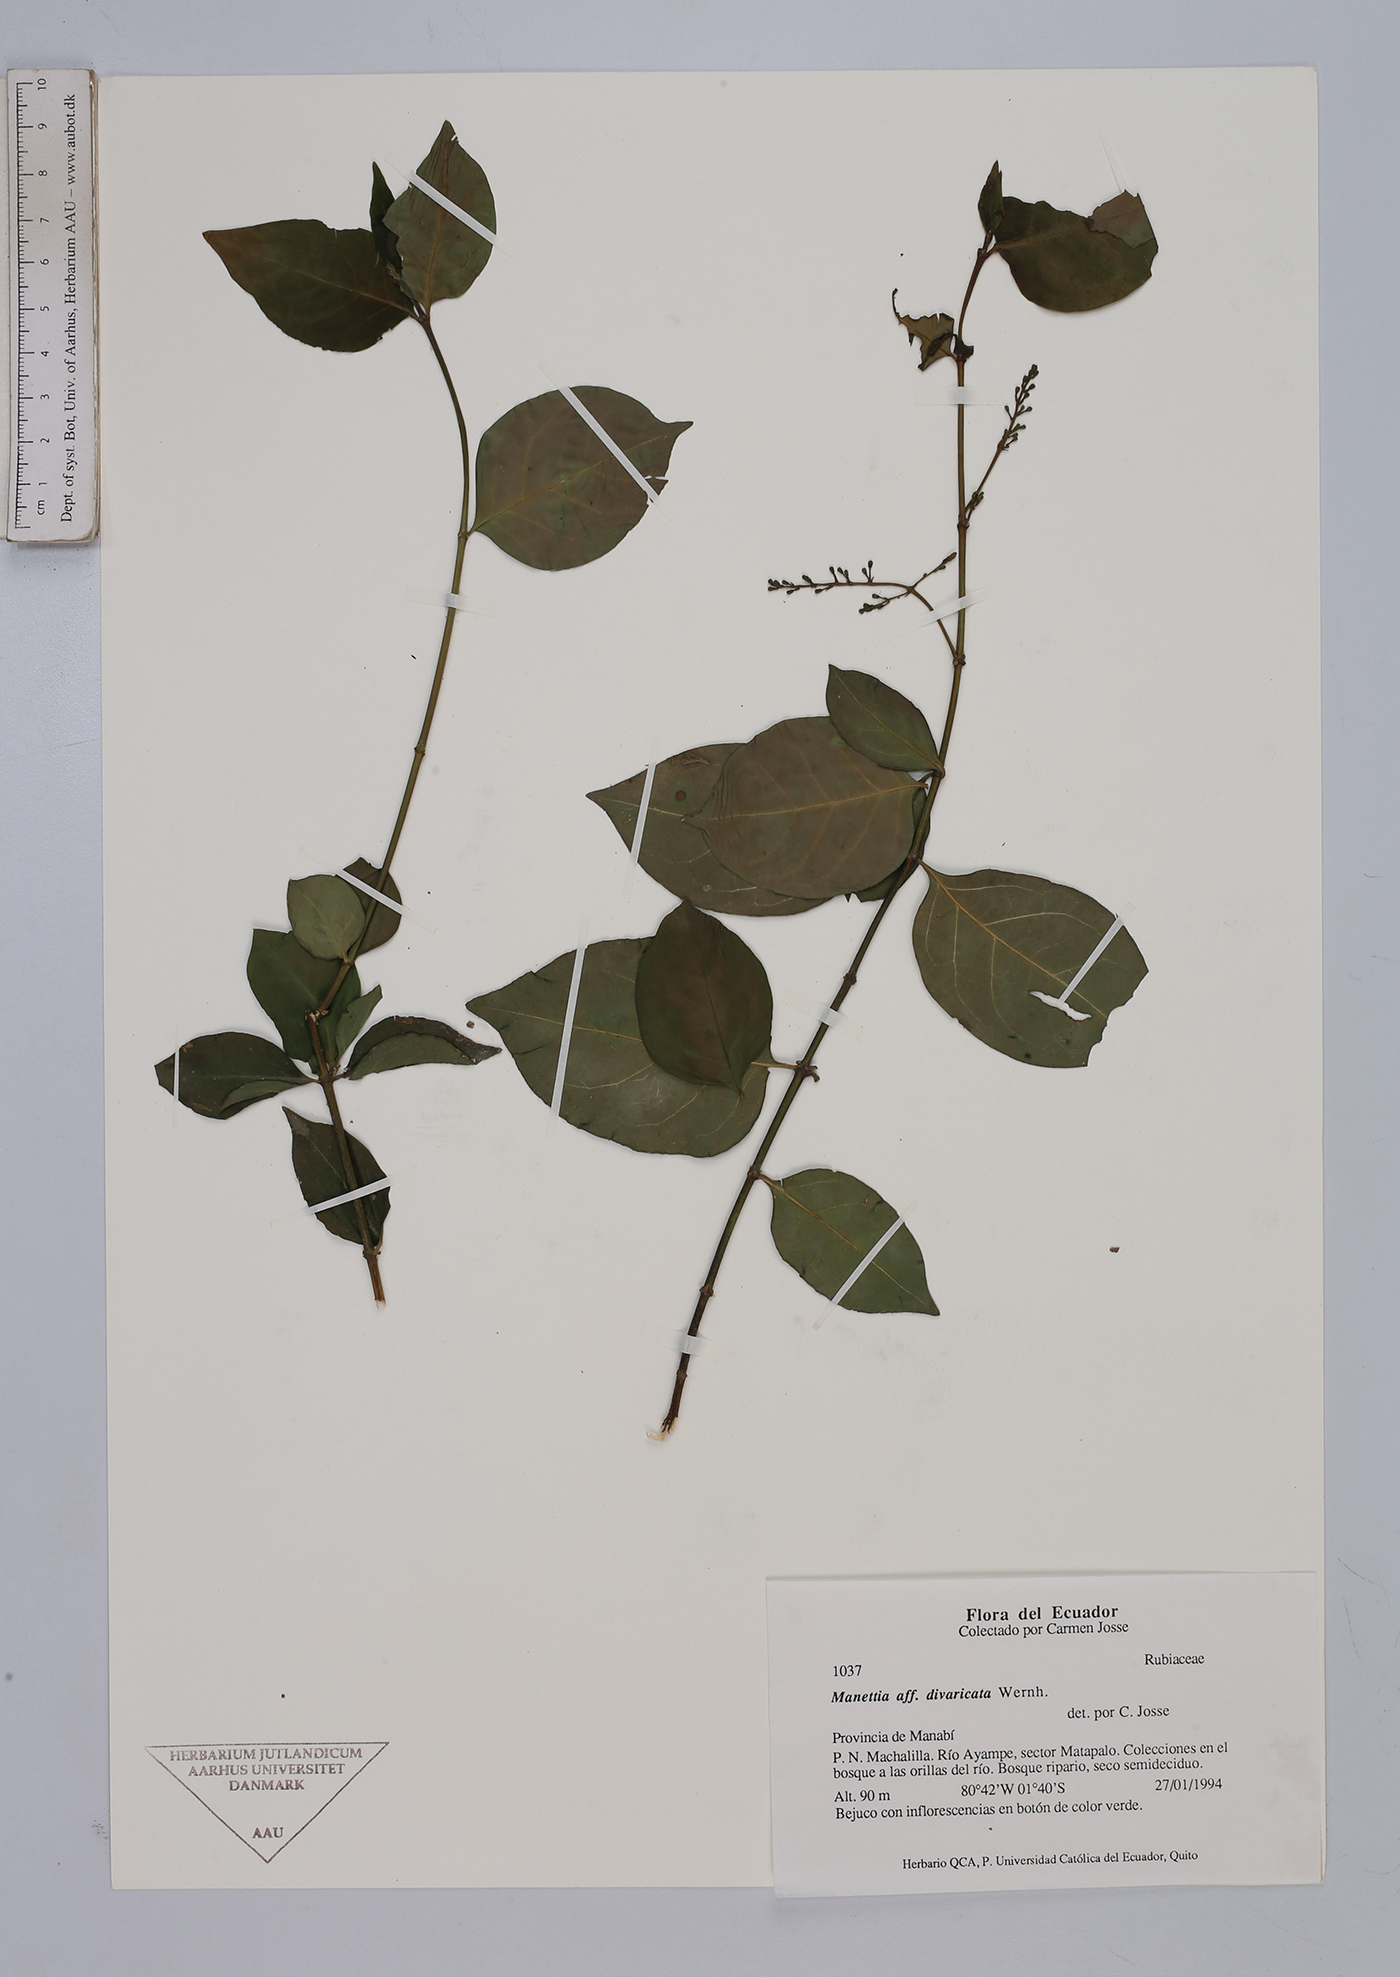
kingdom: Plantae
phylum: Tracheophyta
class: Magnoliopsida
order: Gentianales
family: Rubiaceae
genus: Manettia
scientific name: Manettia divaricata
